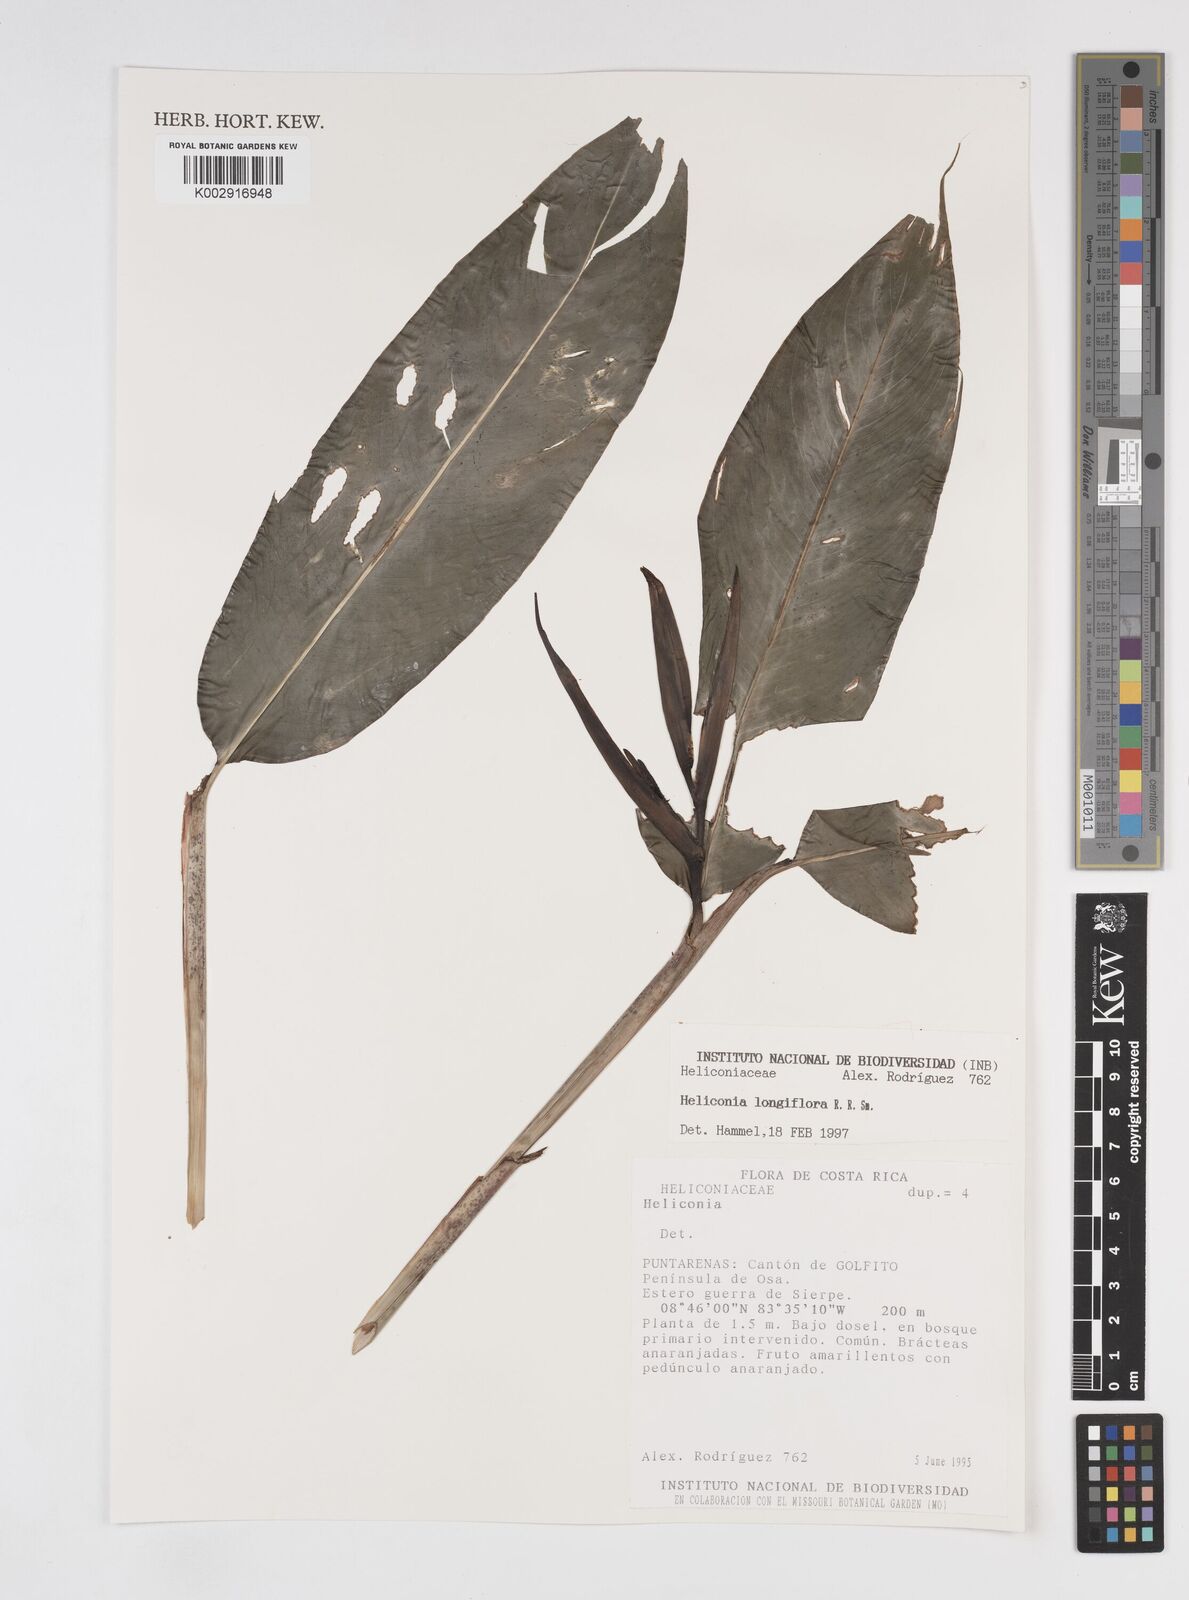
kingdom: Plantae
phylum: Tracheophyta
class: Liliopsida
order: Zingiberales
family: Heliconiaceae
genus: Heliconia
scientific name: Heliconia longiflora
